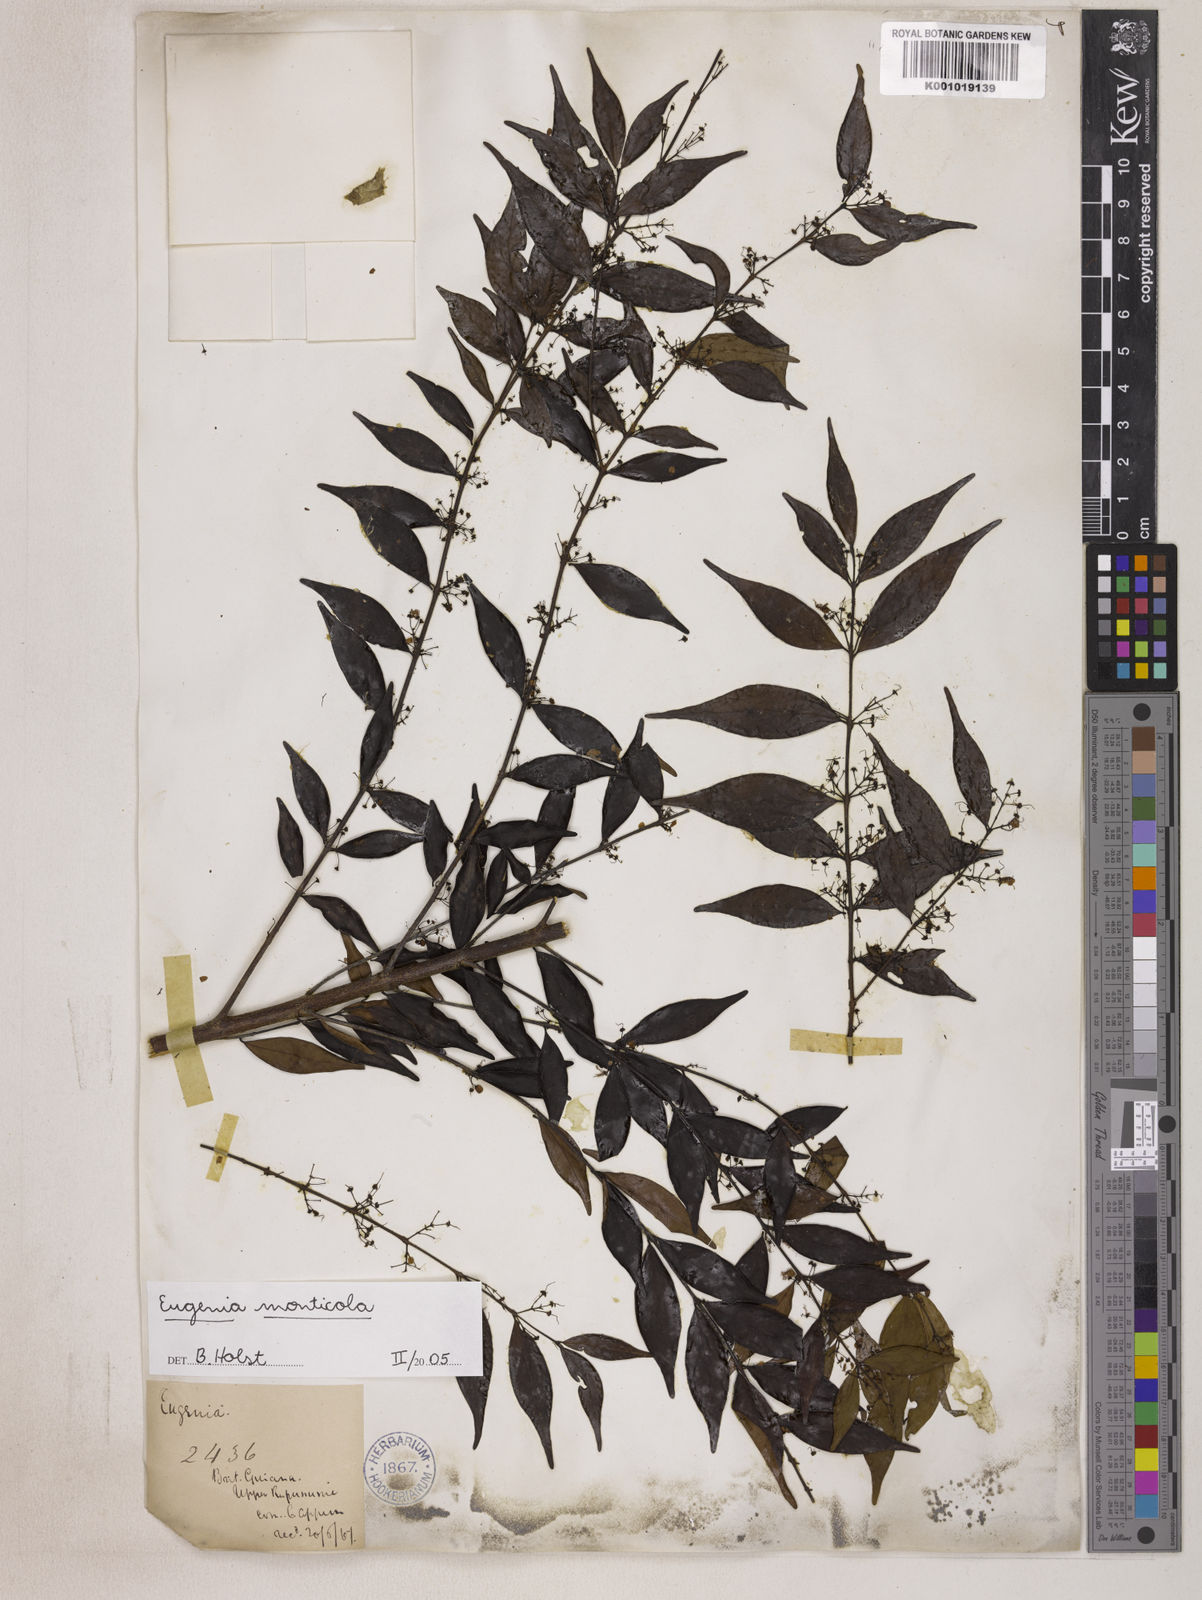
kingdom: Plantae
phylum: Tracheophyta
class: Magnoliopsida
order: Myrtales
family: Myrtaceae
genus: Eugenia
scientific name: Eugenia monticola
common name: Birds berry
